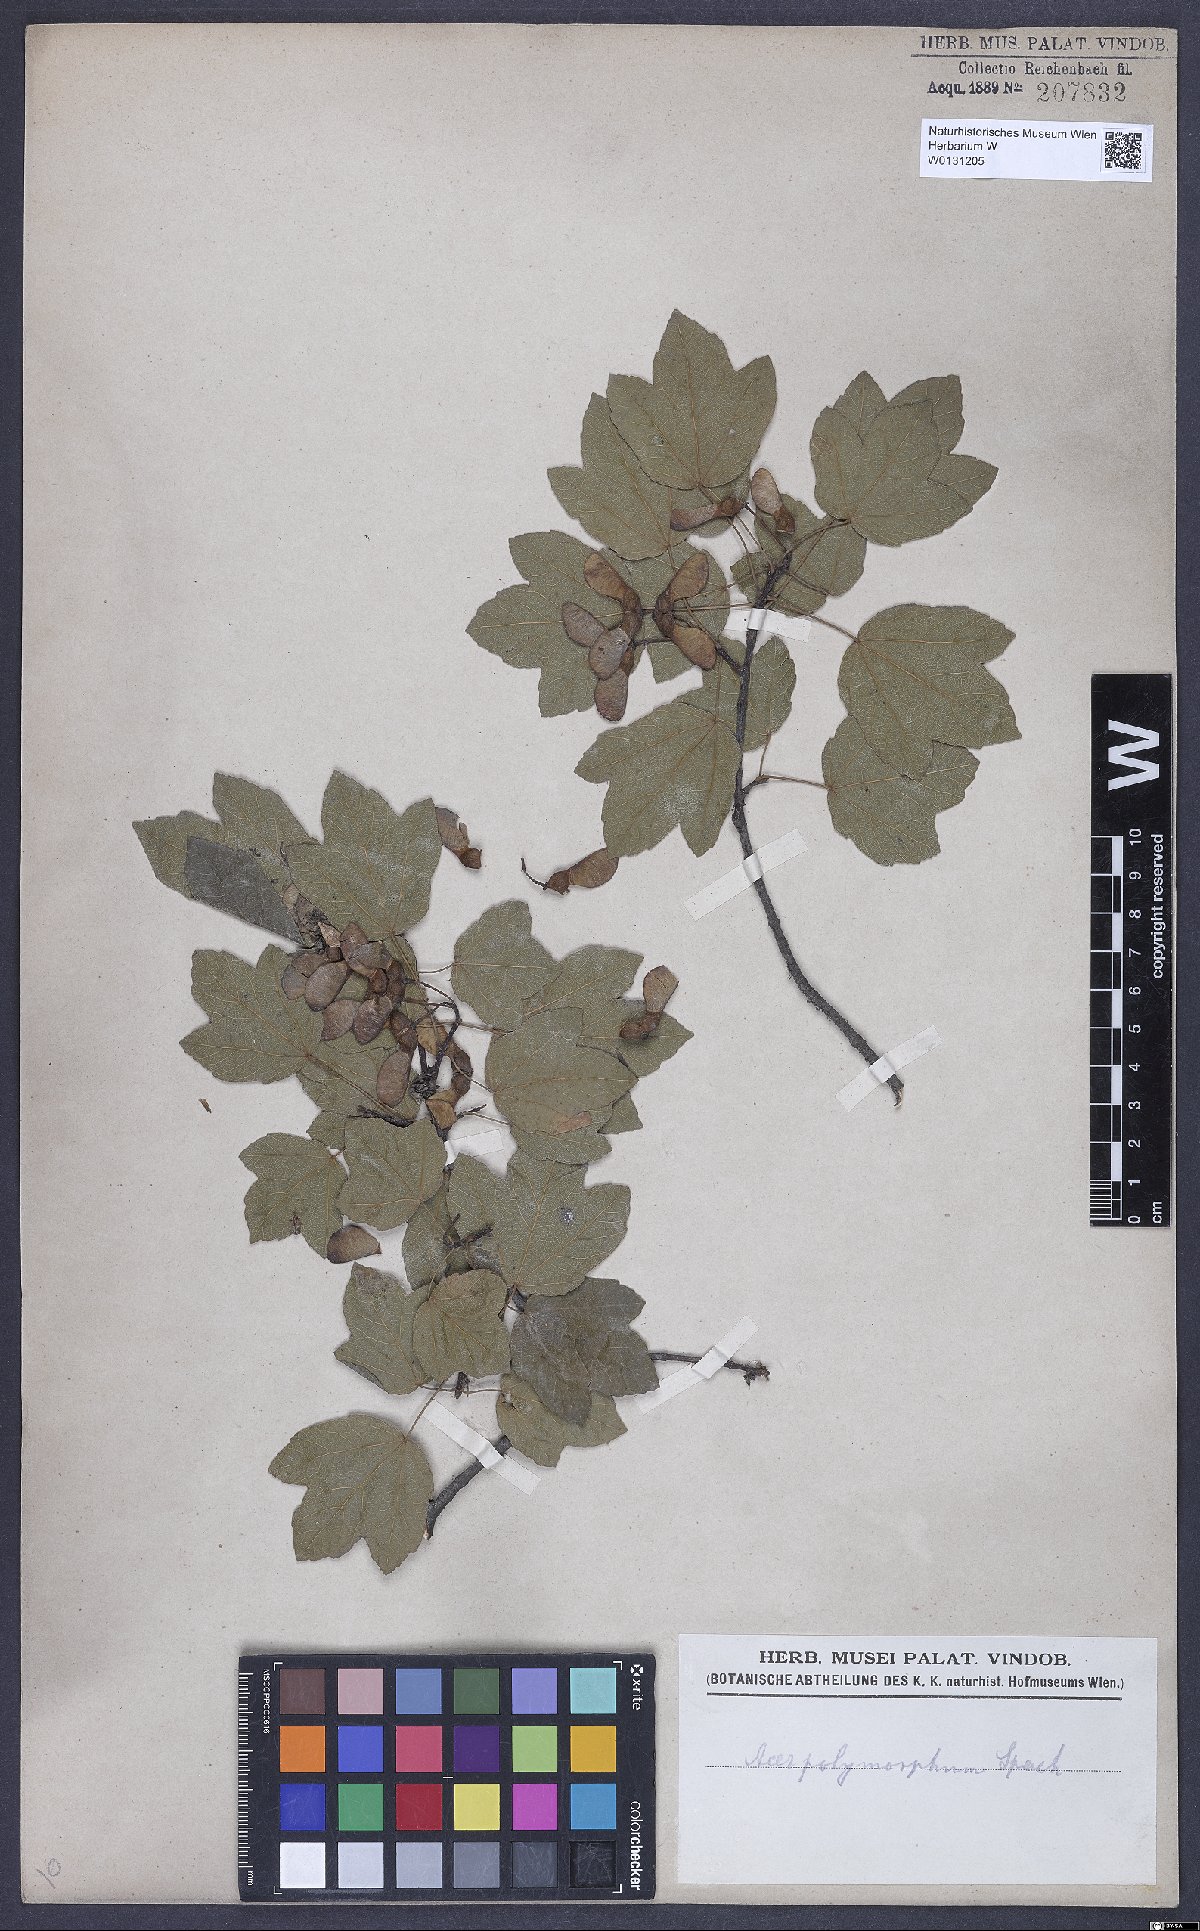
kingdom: Plantae
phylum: Tracheophyta
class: Magnoliopsida
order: Sapindales
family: Aceraceae
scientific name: Aceraceae
